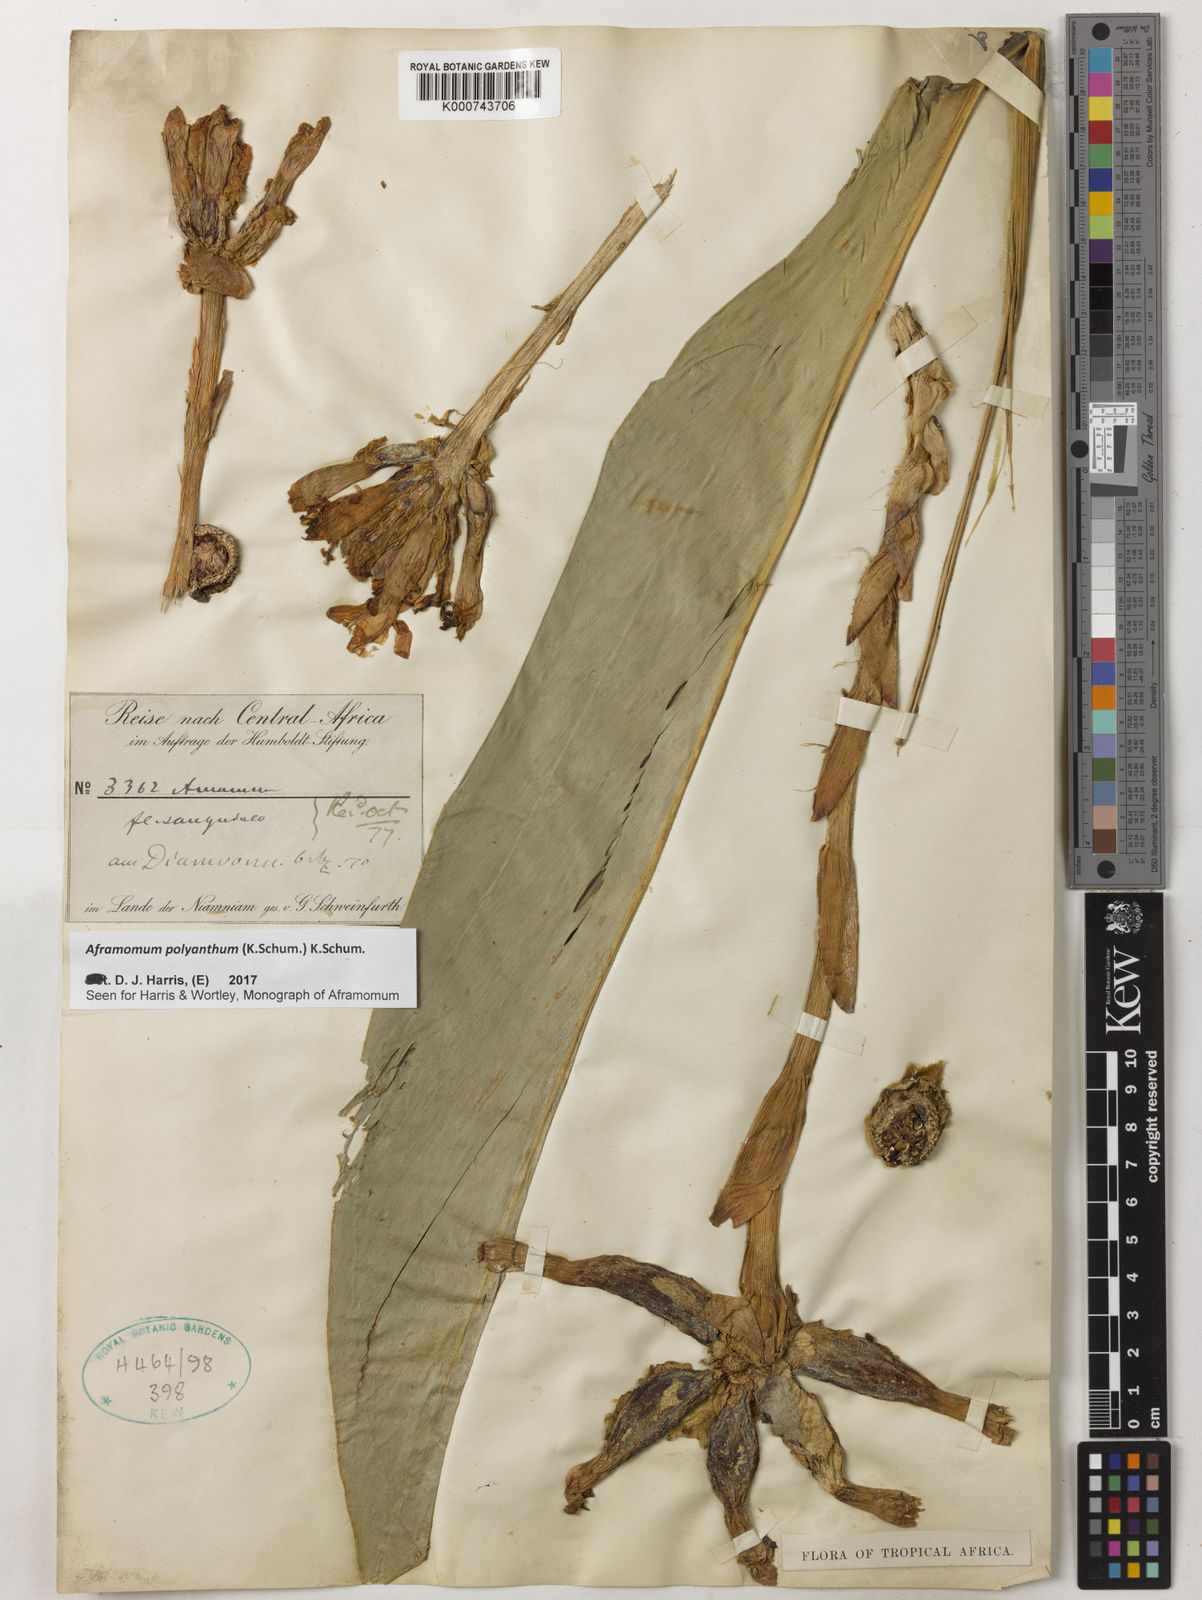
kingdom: Plantae
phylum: Tracheophyta
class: Liliopsida
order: Zingiberales
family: Zingiberaceae
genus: Aframomum
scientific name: Aframomum polyanthum
